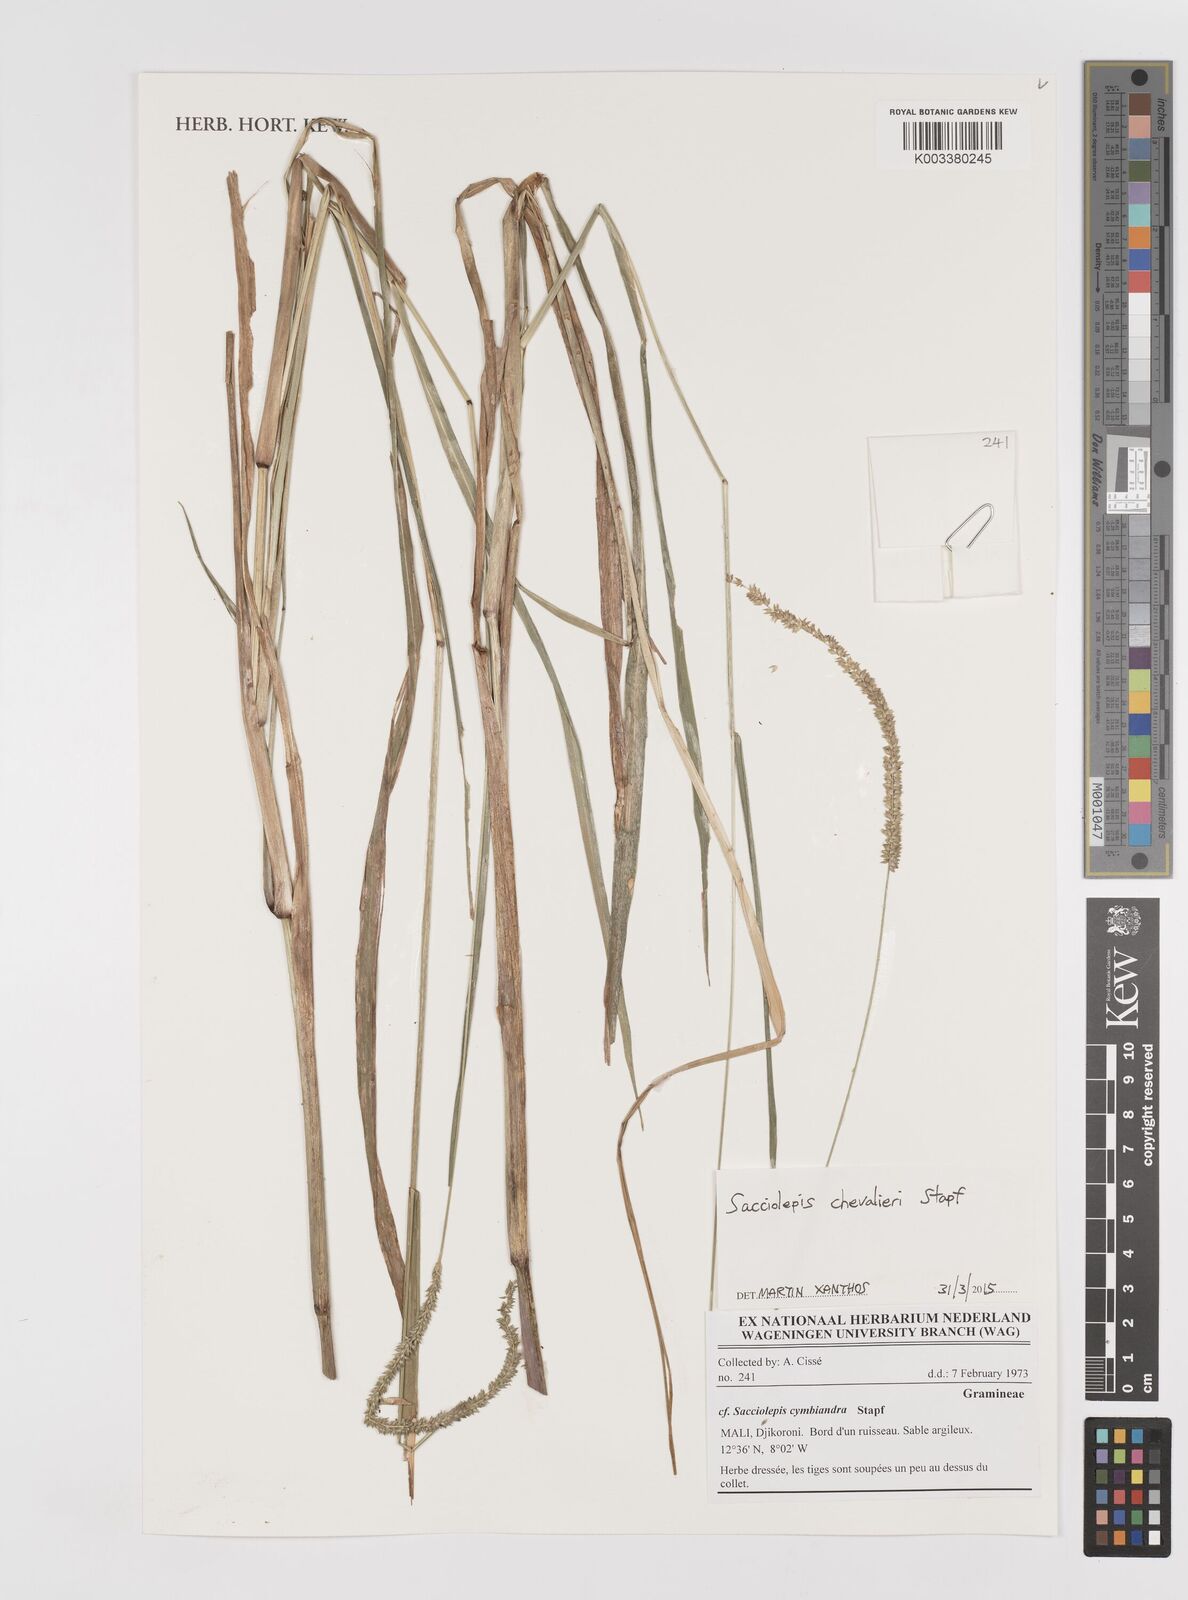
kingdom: Plantae
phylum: Tracheophyta
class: Liliopsida
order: Poales
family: Poaceae
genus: Sacciolepis
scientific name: Sacciolepis chevalieri
